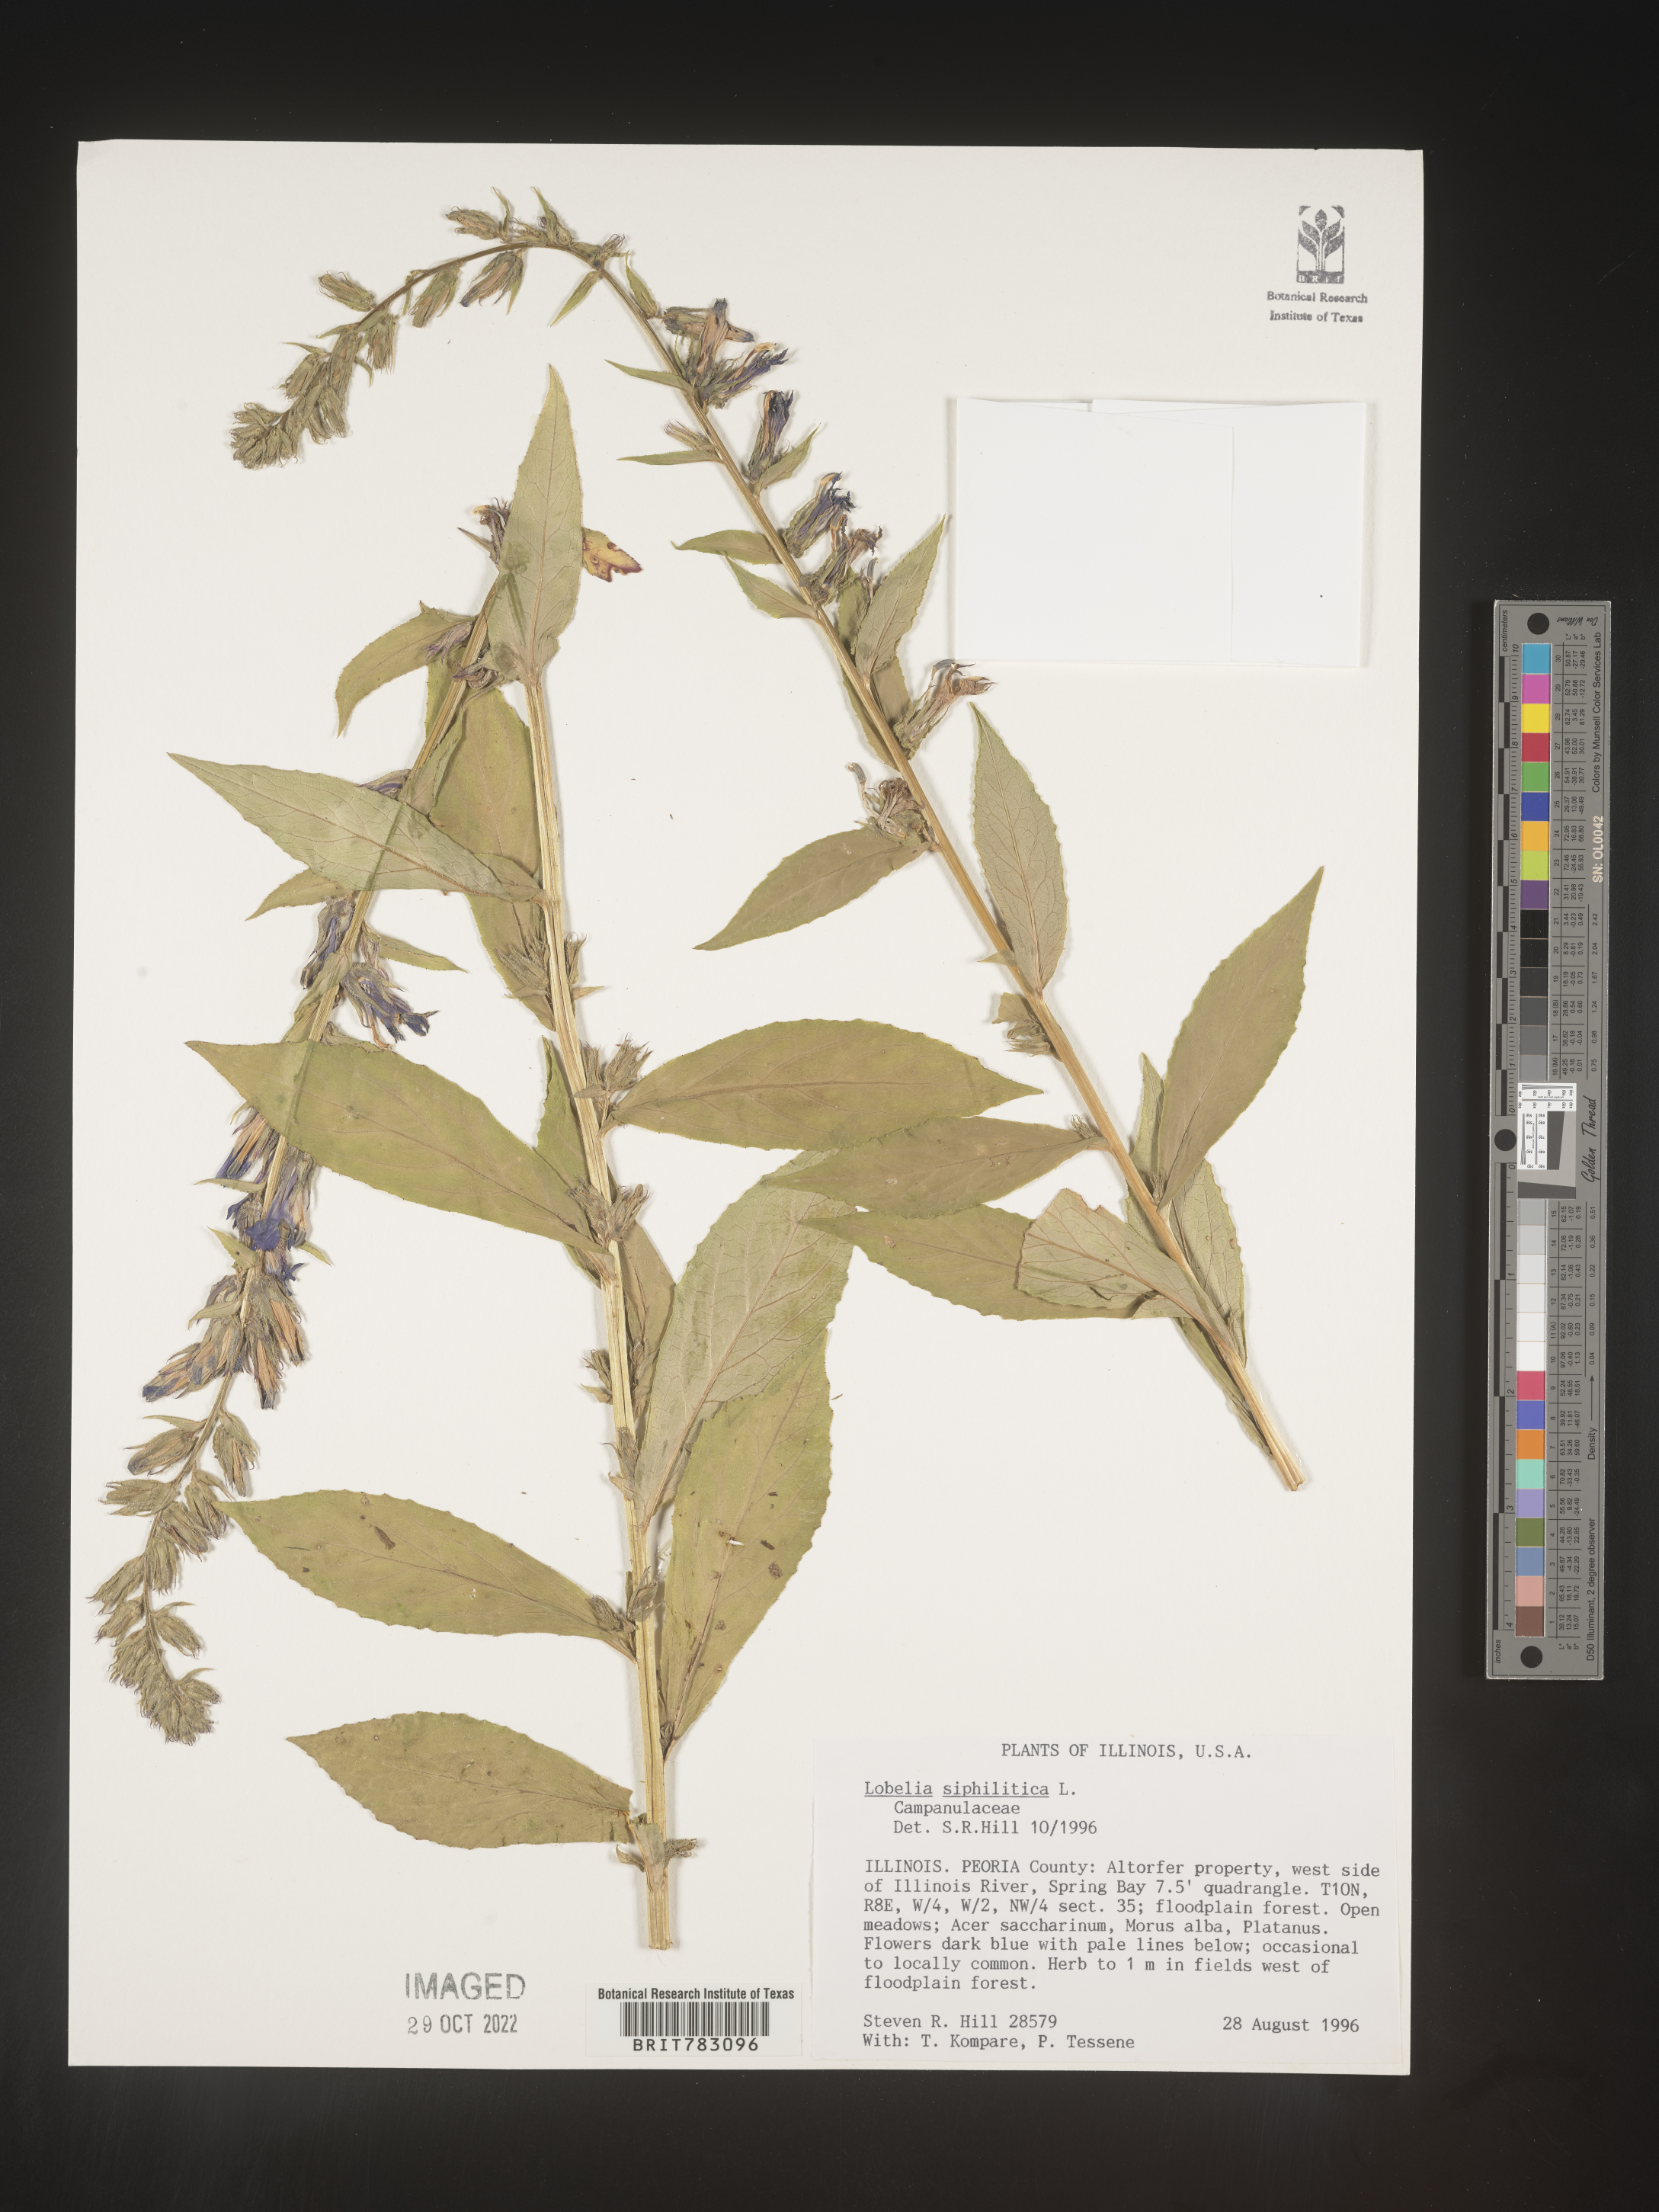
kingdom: Plantae
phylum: Tracheophyta
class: Magnoliopsida
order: Asterales
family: Campanulaceae
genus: Lobelia
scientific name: Lobelia siphilitica
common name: Great lobelia
